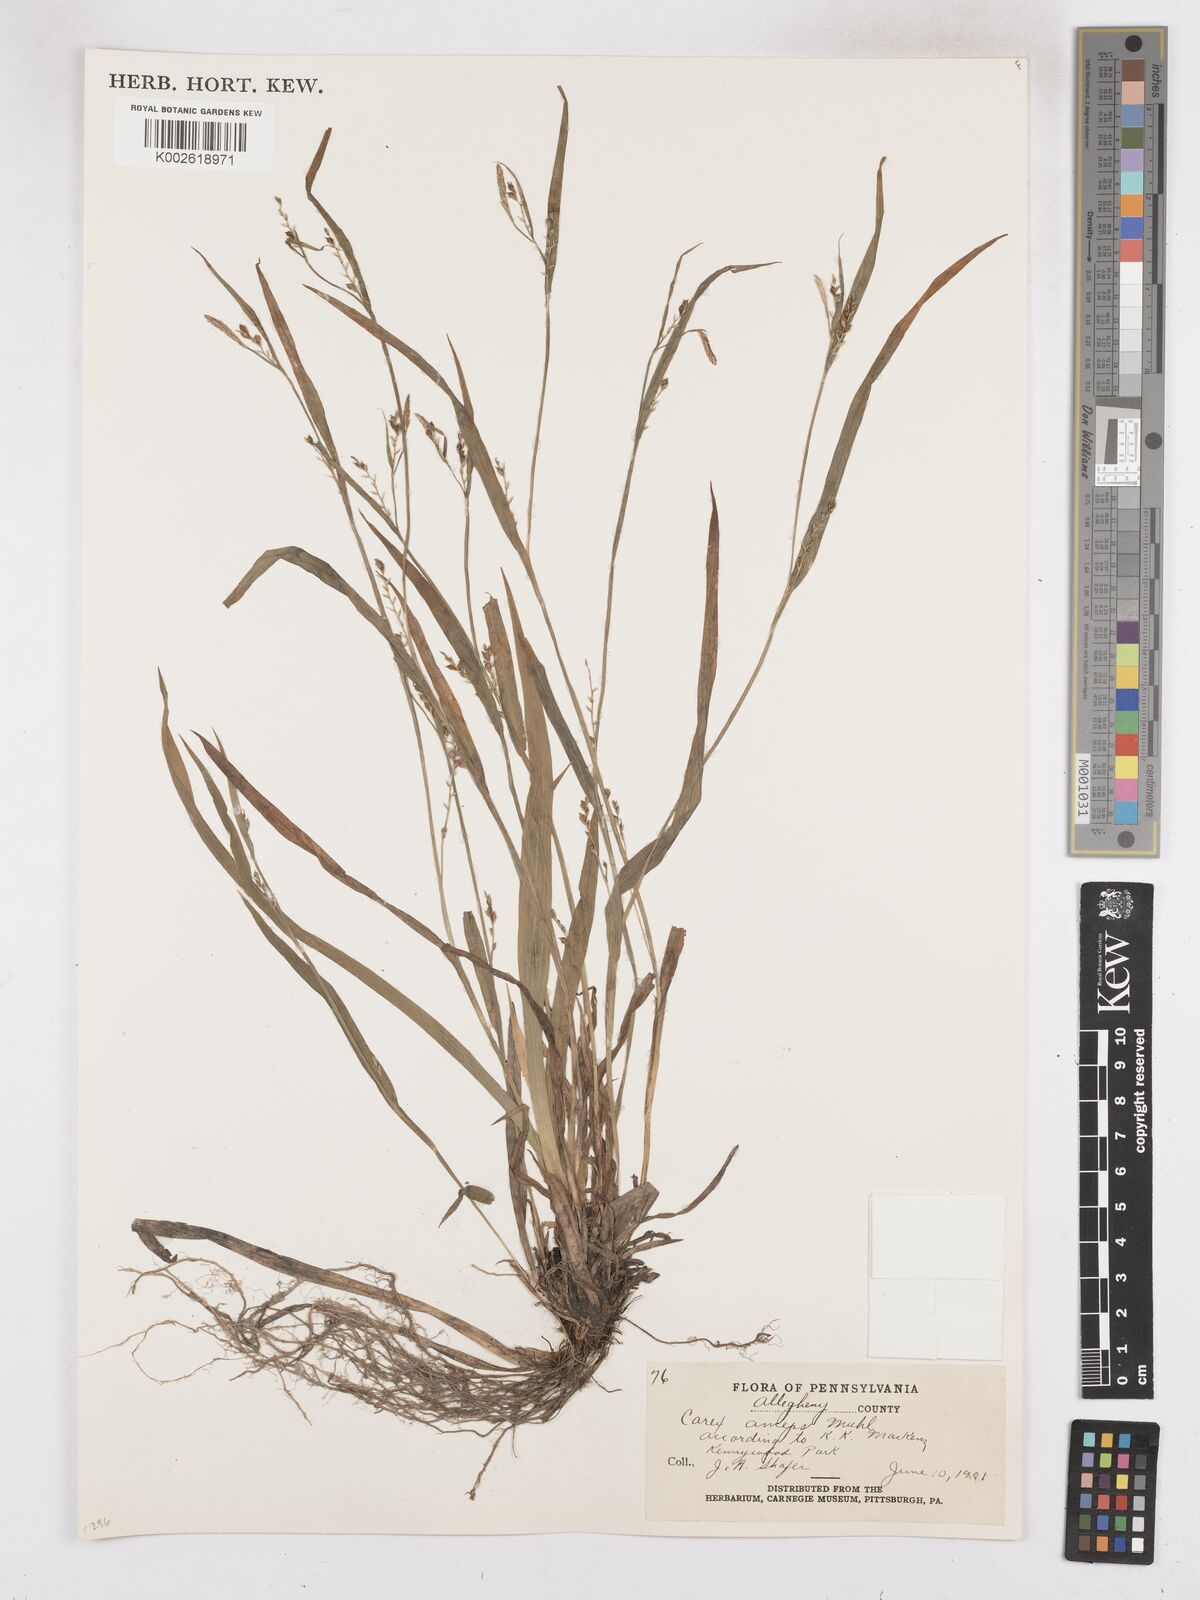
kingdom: Plantae
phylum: Tracheophyta
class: Liliopsida
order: Poales
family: Cyperaceae
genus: Carex
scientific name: Carex laxiflora
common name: Beech wood sedge
